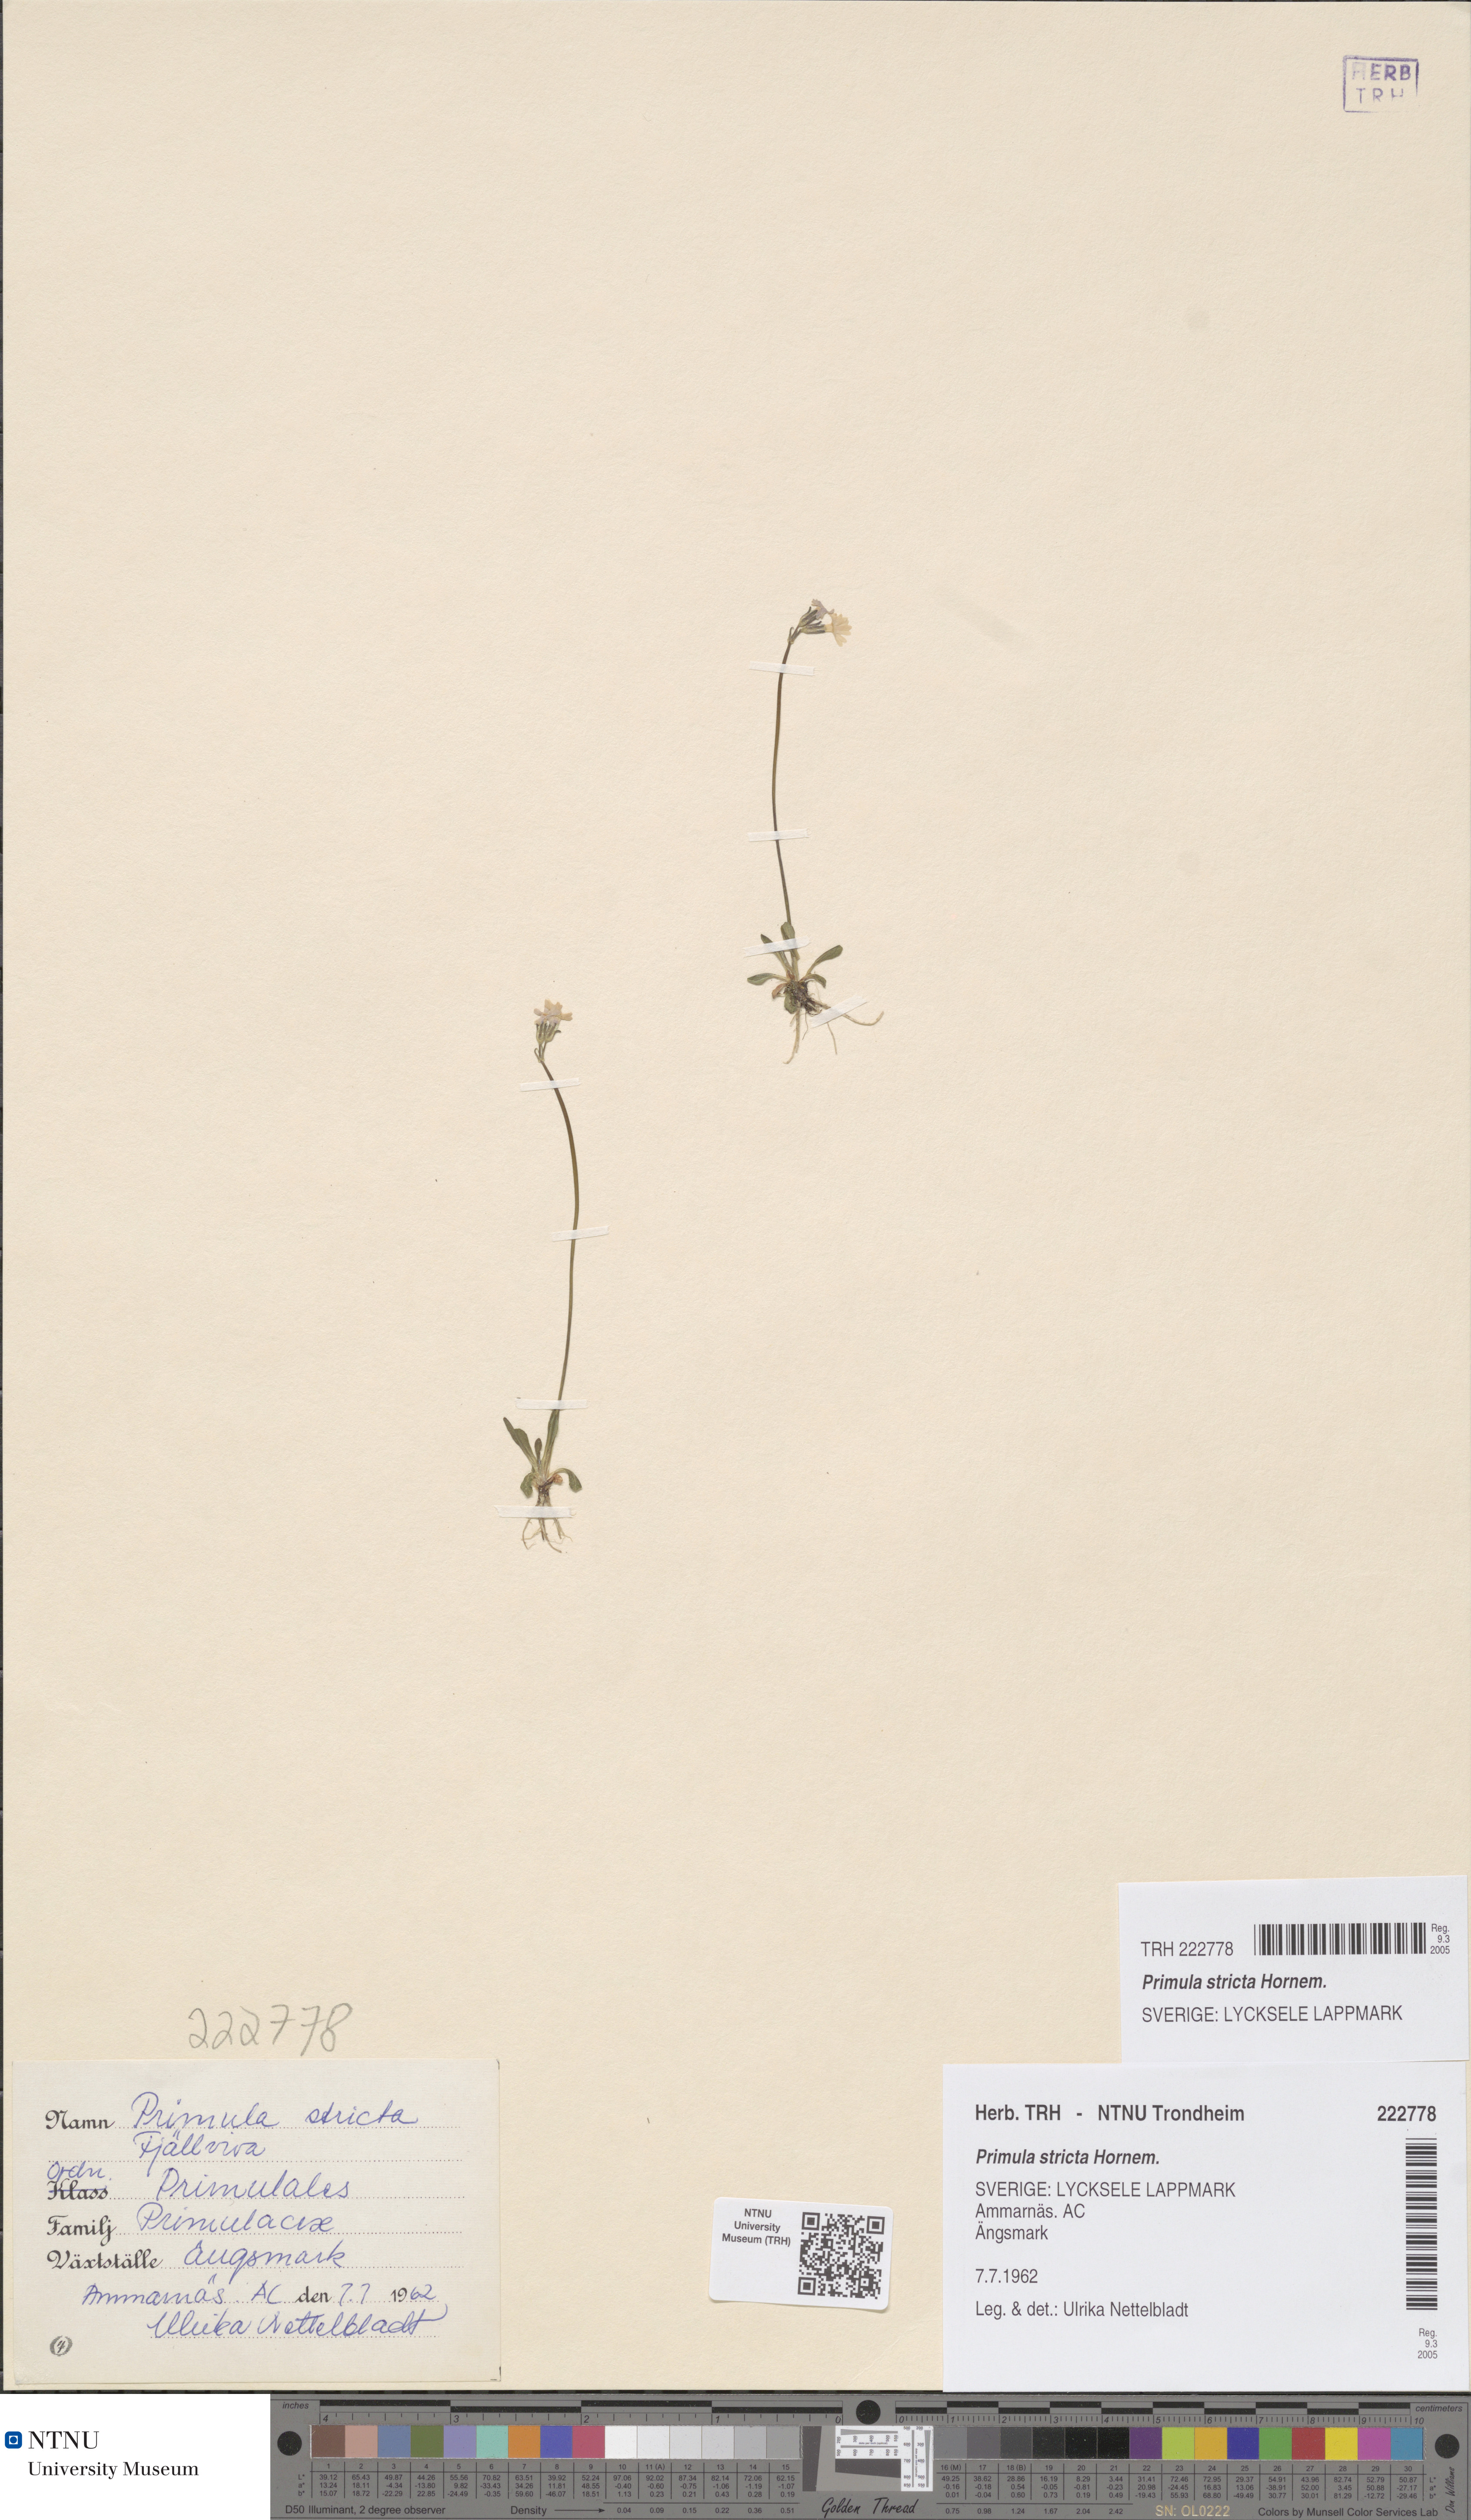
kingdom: Plantae
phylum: Tracheophyta
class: Magnoliopsida
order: Ericales
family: Primulaceae
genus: Primula
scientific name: Primula stricta
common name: Coastal primrose
